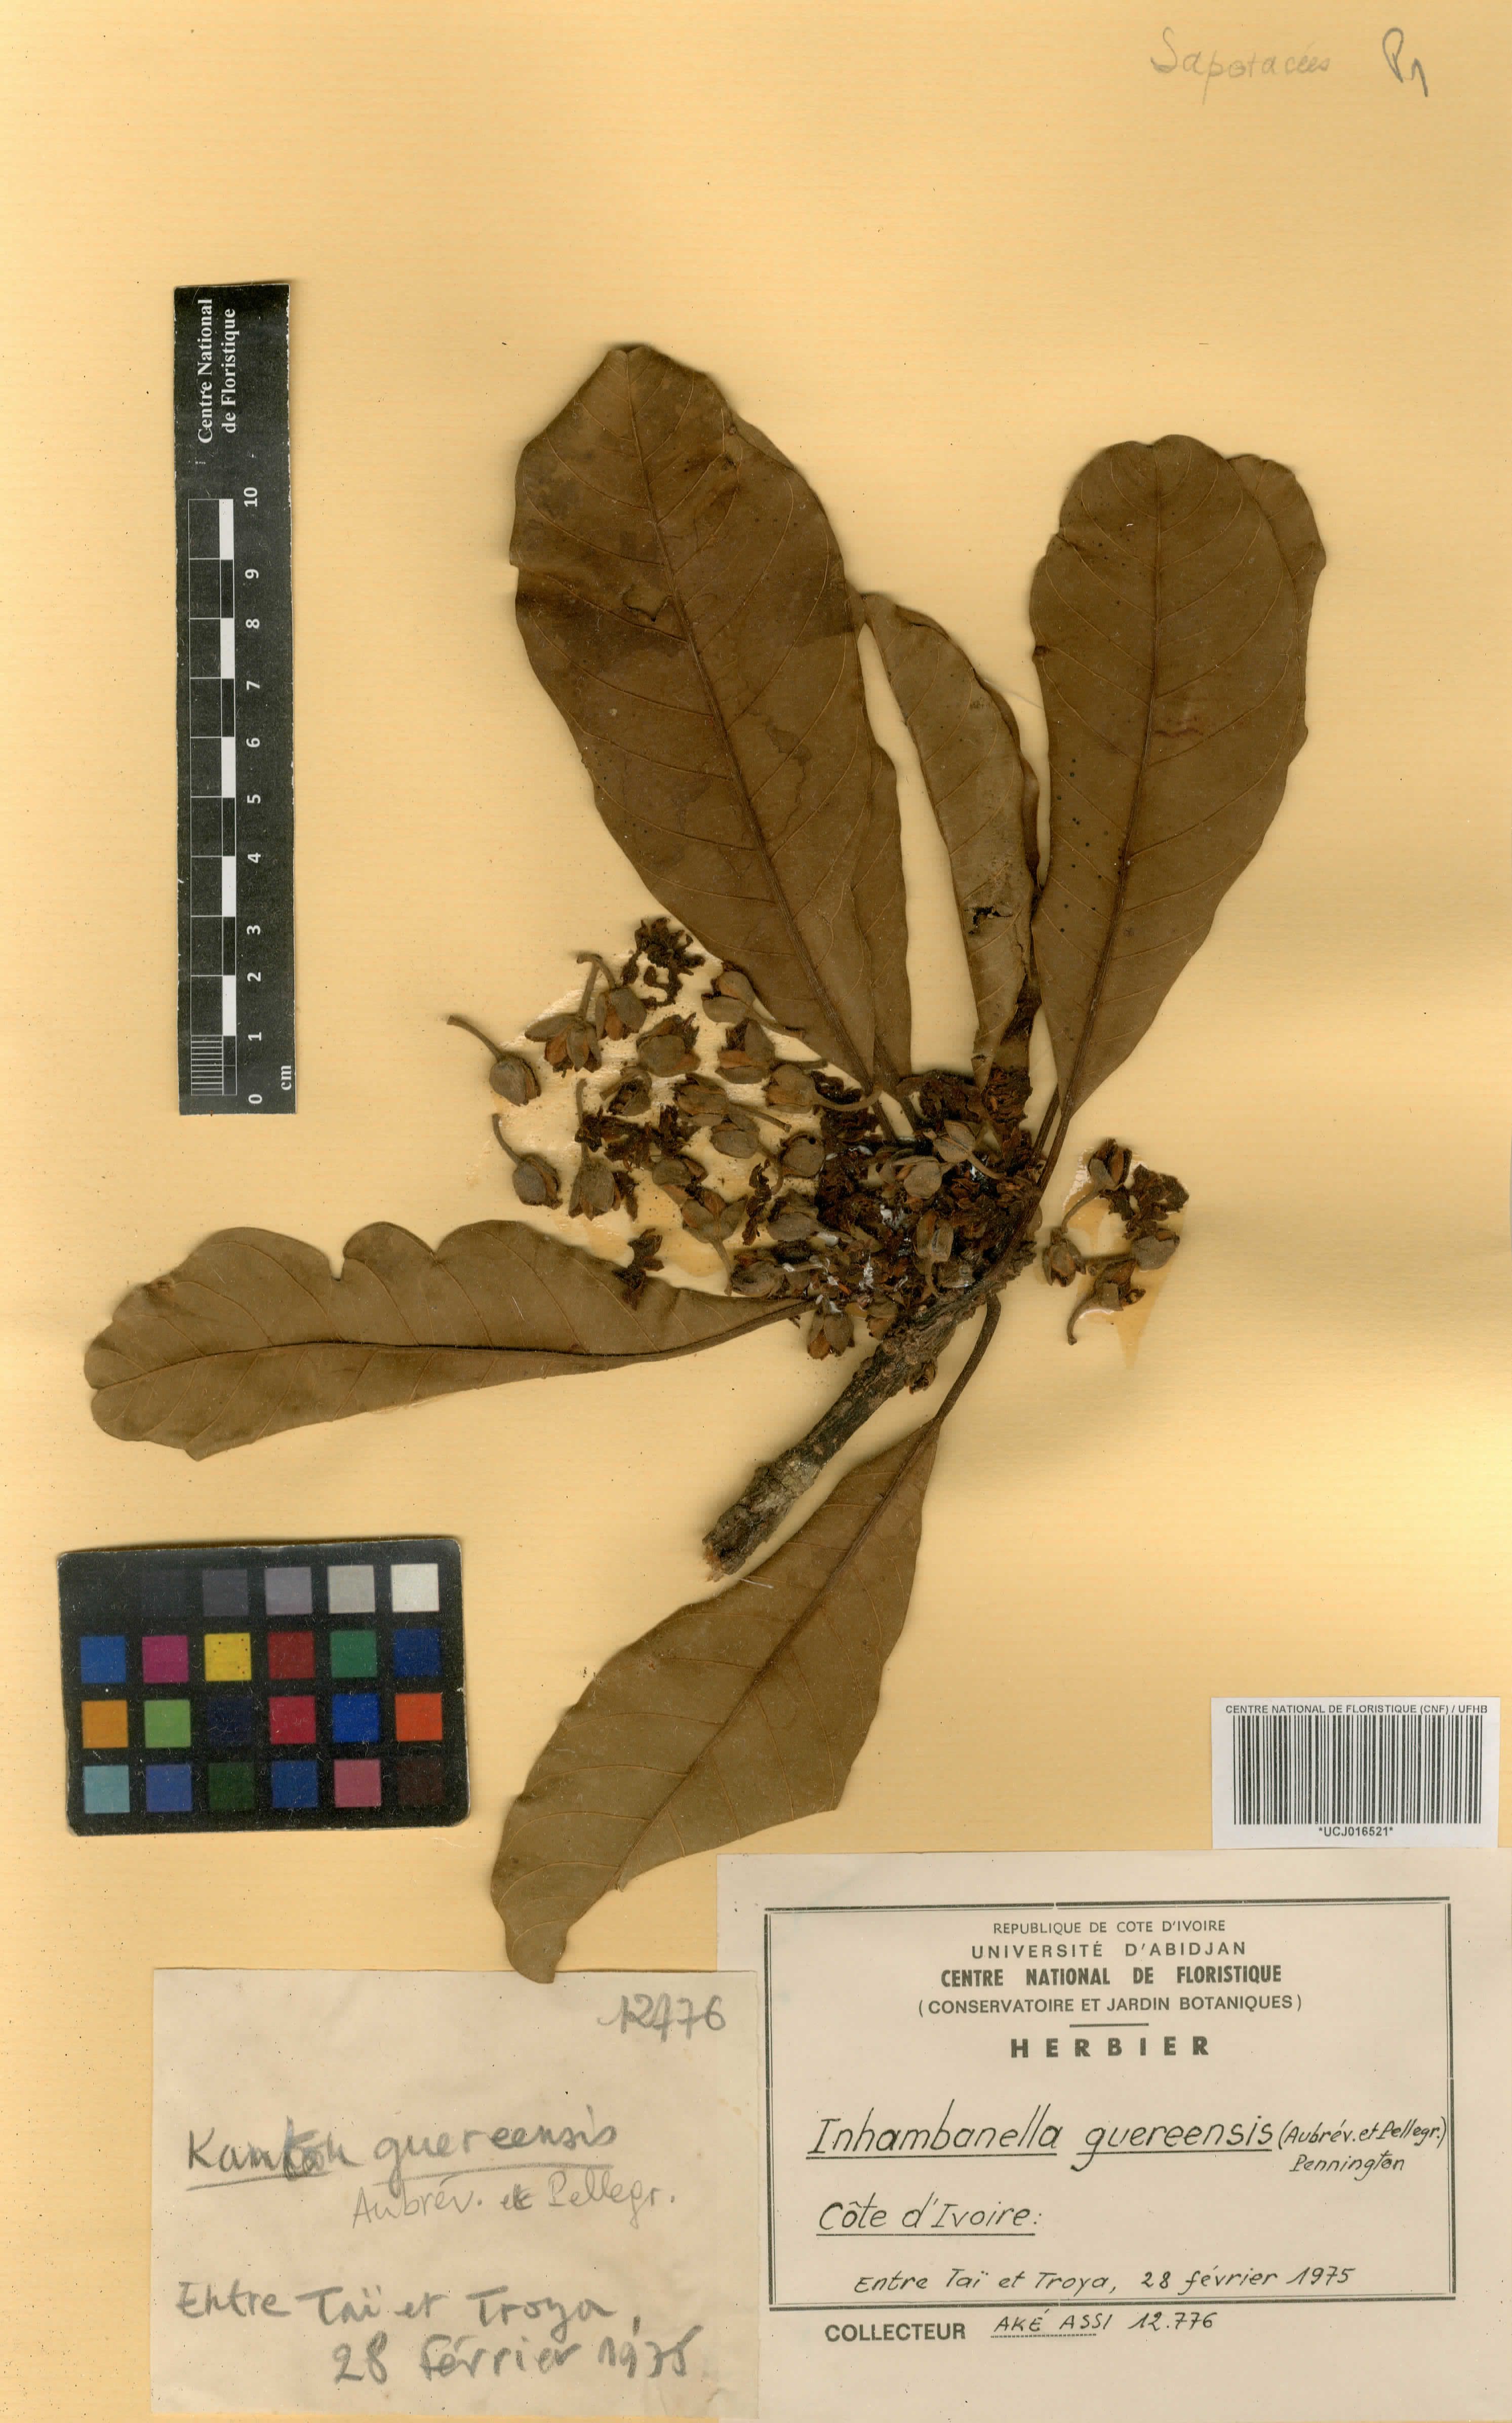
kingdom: Plantae
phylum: Tracheophyta
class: Magnoliopsida
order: Ericales
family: Sapotaceae
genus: Inhambanella
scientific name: Inhambanella guereensis
